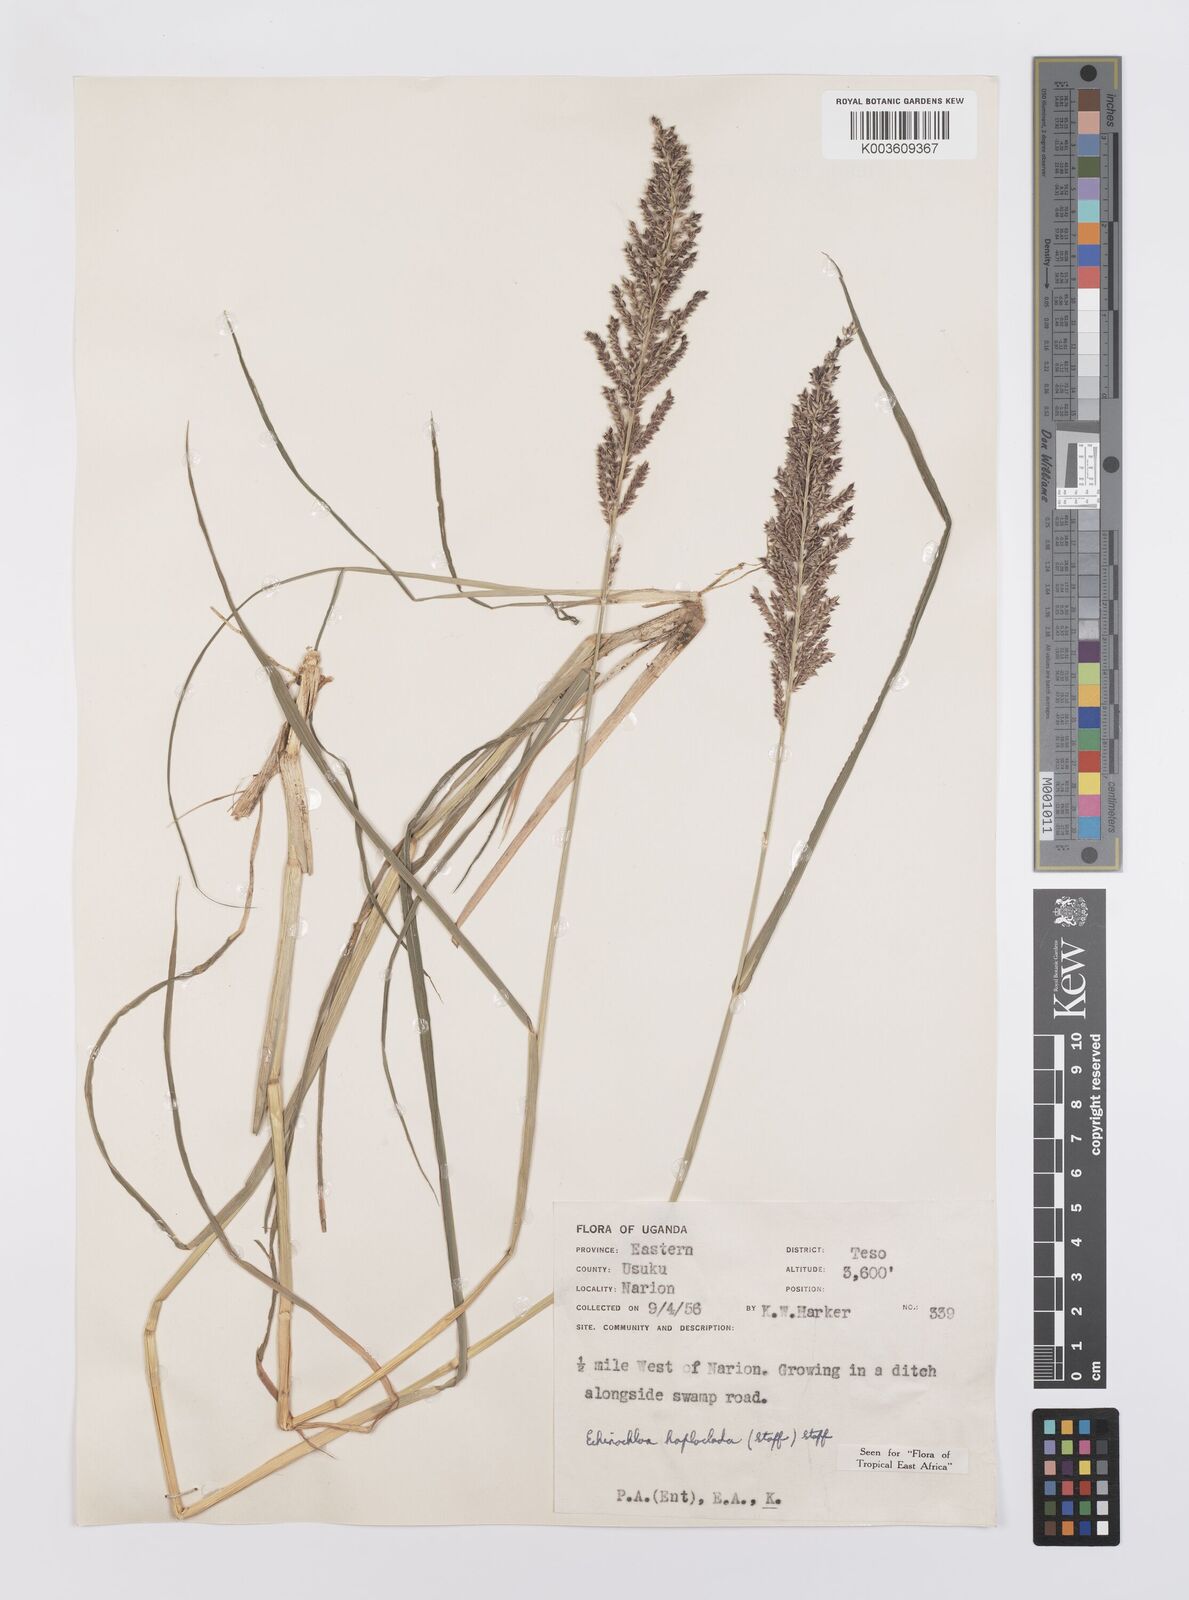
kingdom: Plantae
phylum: Tracheophyta
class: Liliopsida
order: Poales
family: Poaceae
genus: Echinochloa
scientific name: Echinochloa haploclada
